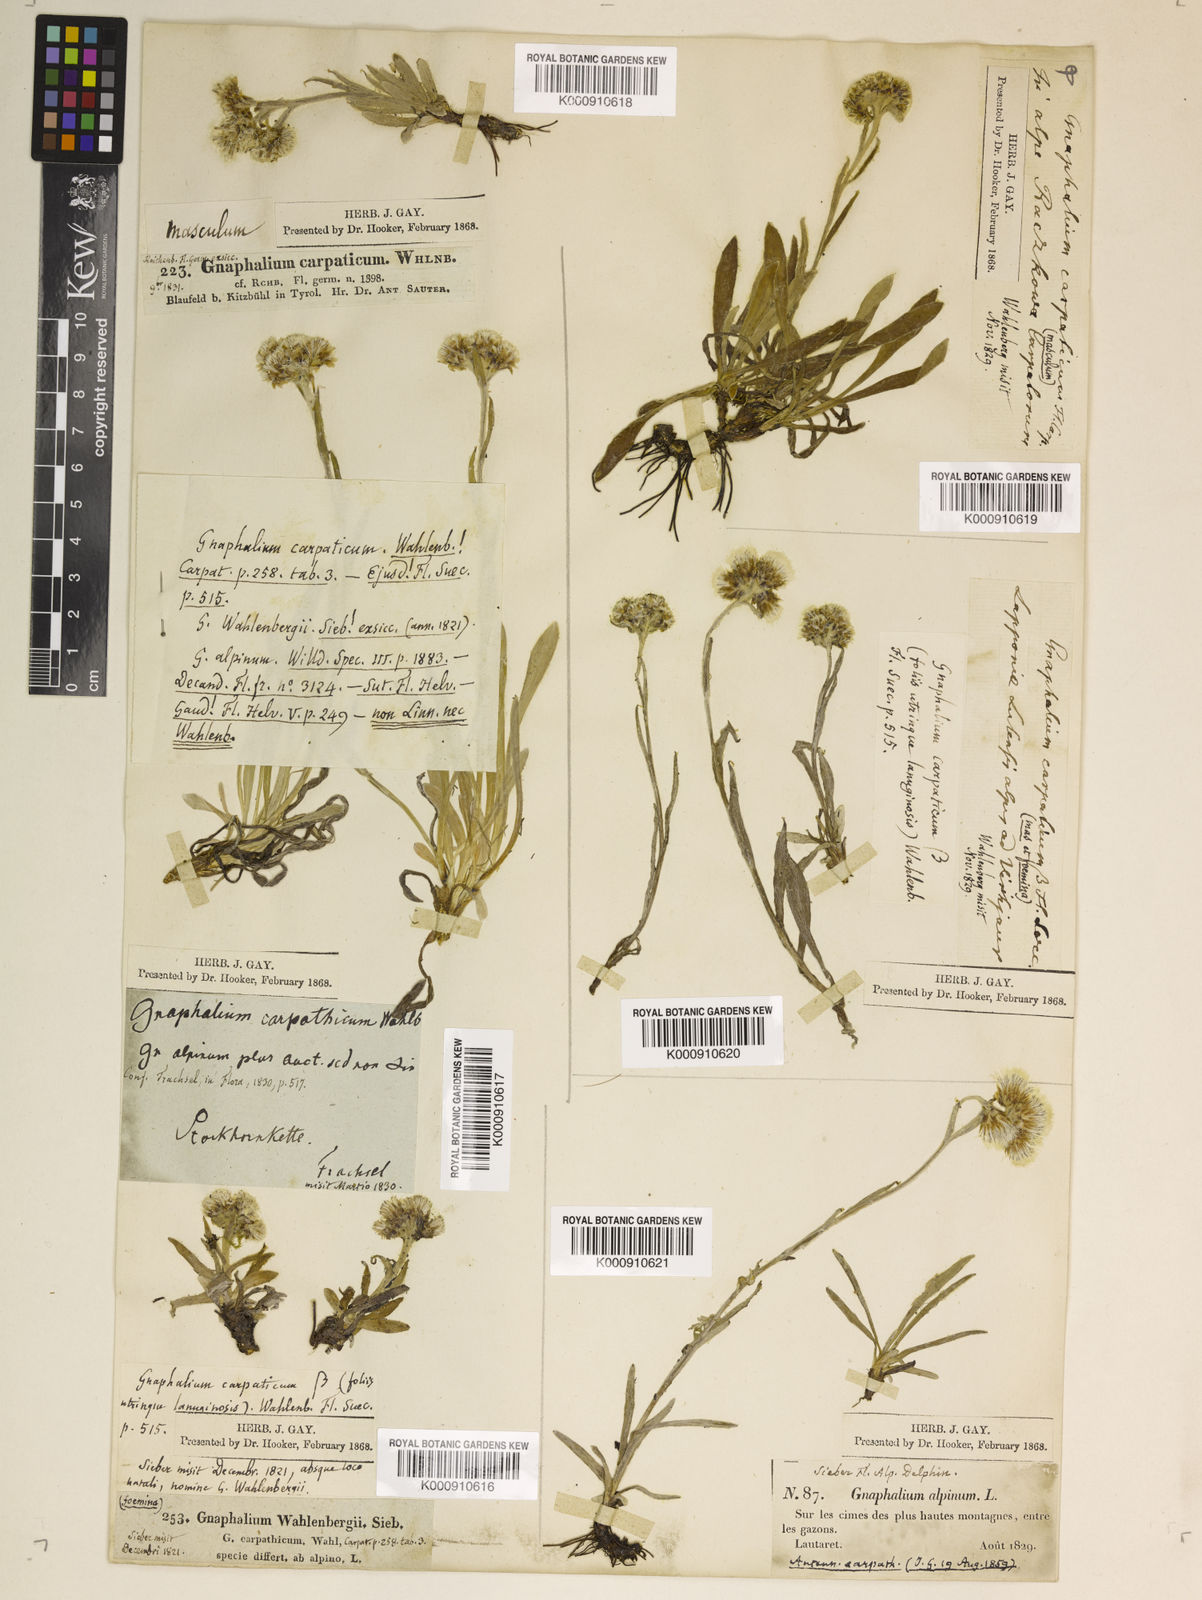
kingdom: Plantae
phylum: Tracheophyta
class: Magnoliopsida
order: Asterales
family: Asteraceae
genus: Antennaria
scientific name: Antennaria
